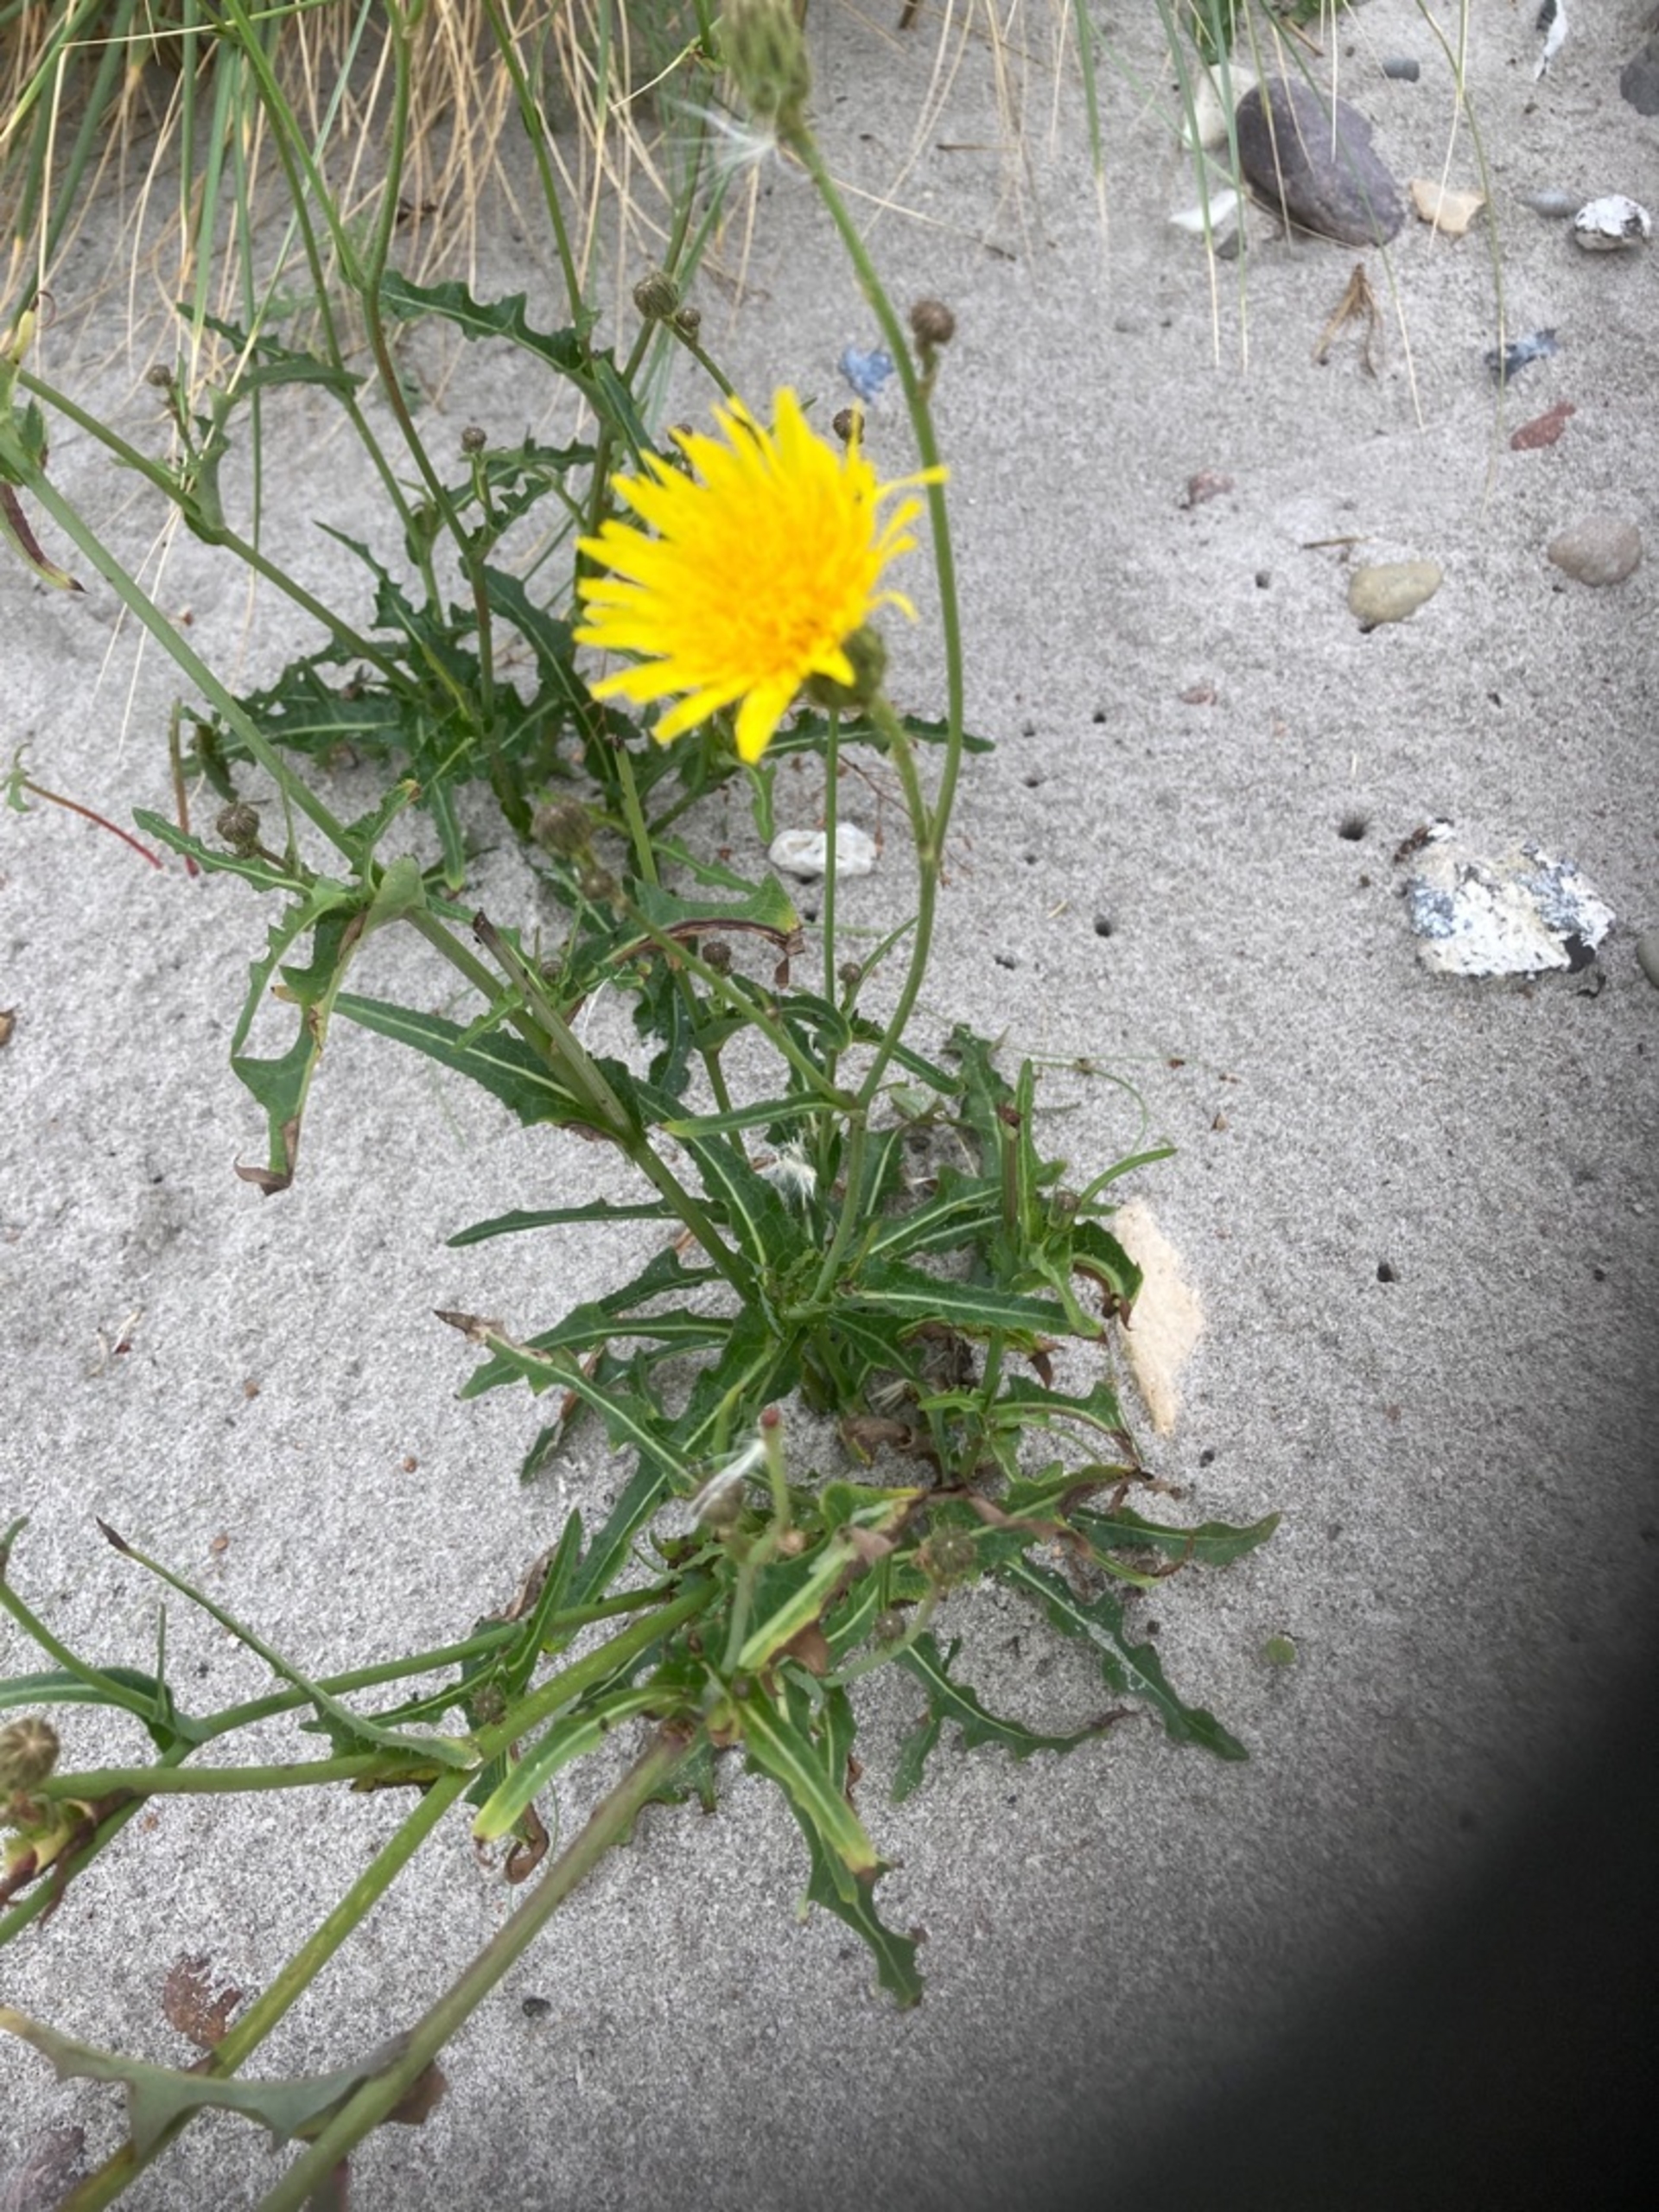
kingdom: Plantae
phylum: Tracheophyta
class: Magnoliopsida
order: Asterales
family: Asteraceae
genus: Sonchus
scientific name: Sonchus arvensis
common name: Ager-svinemælk
